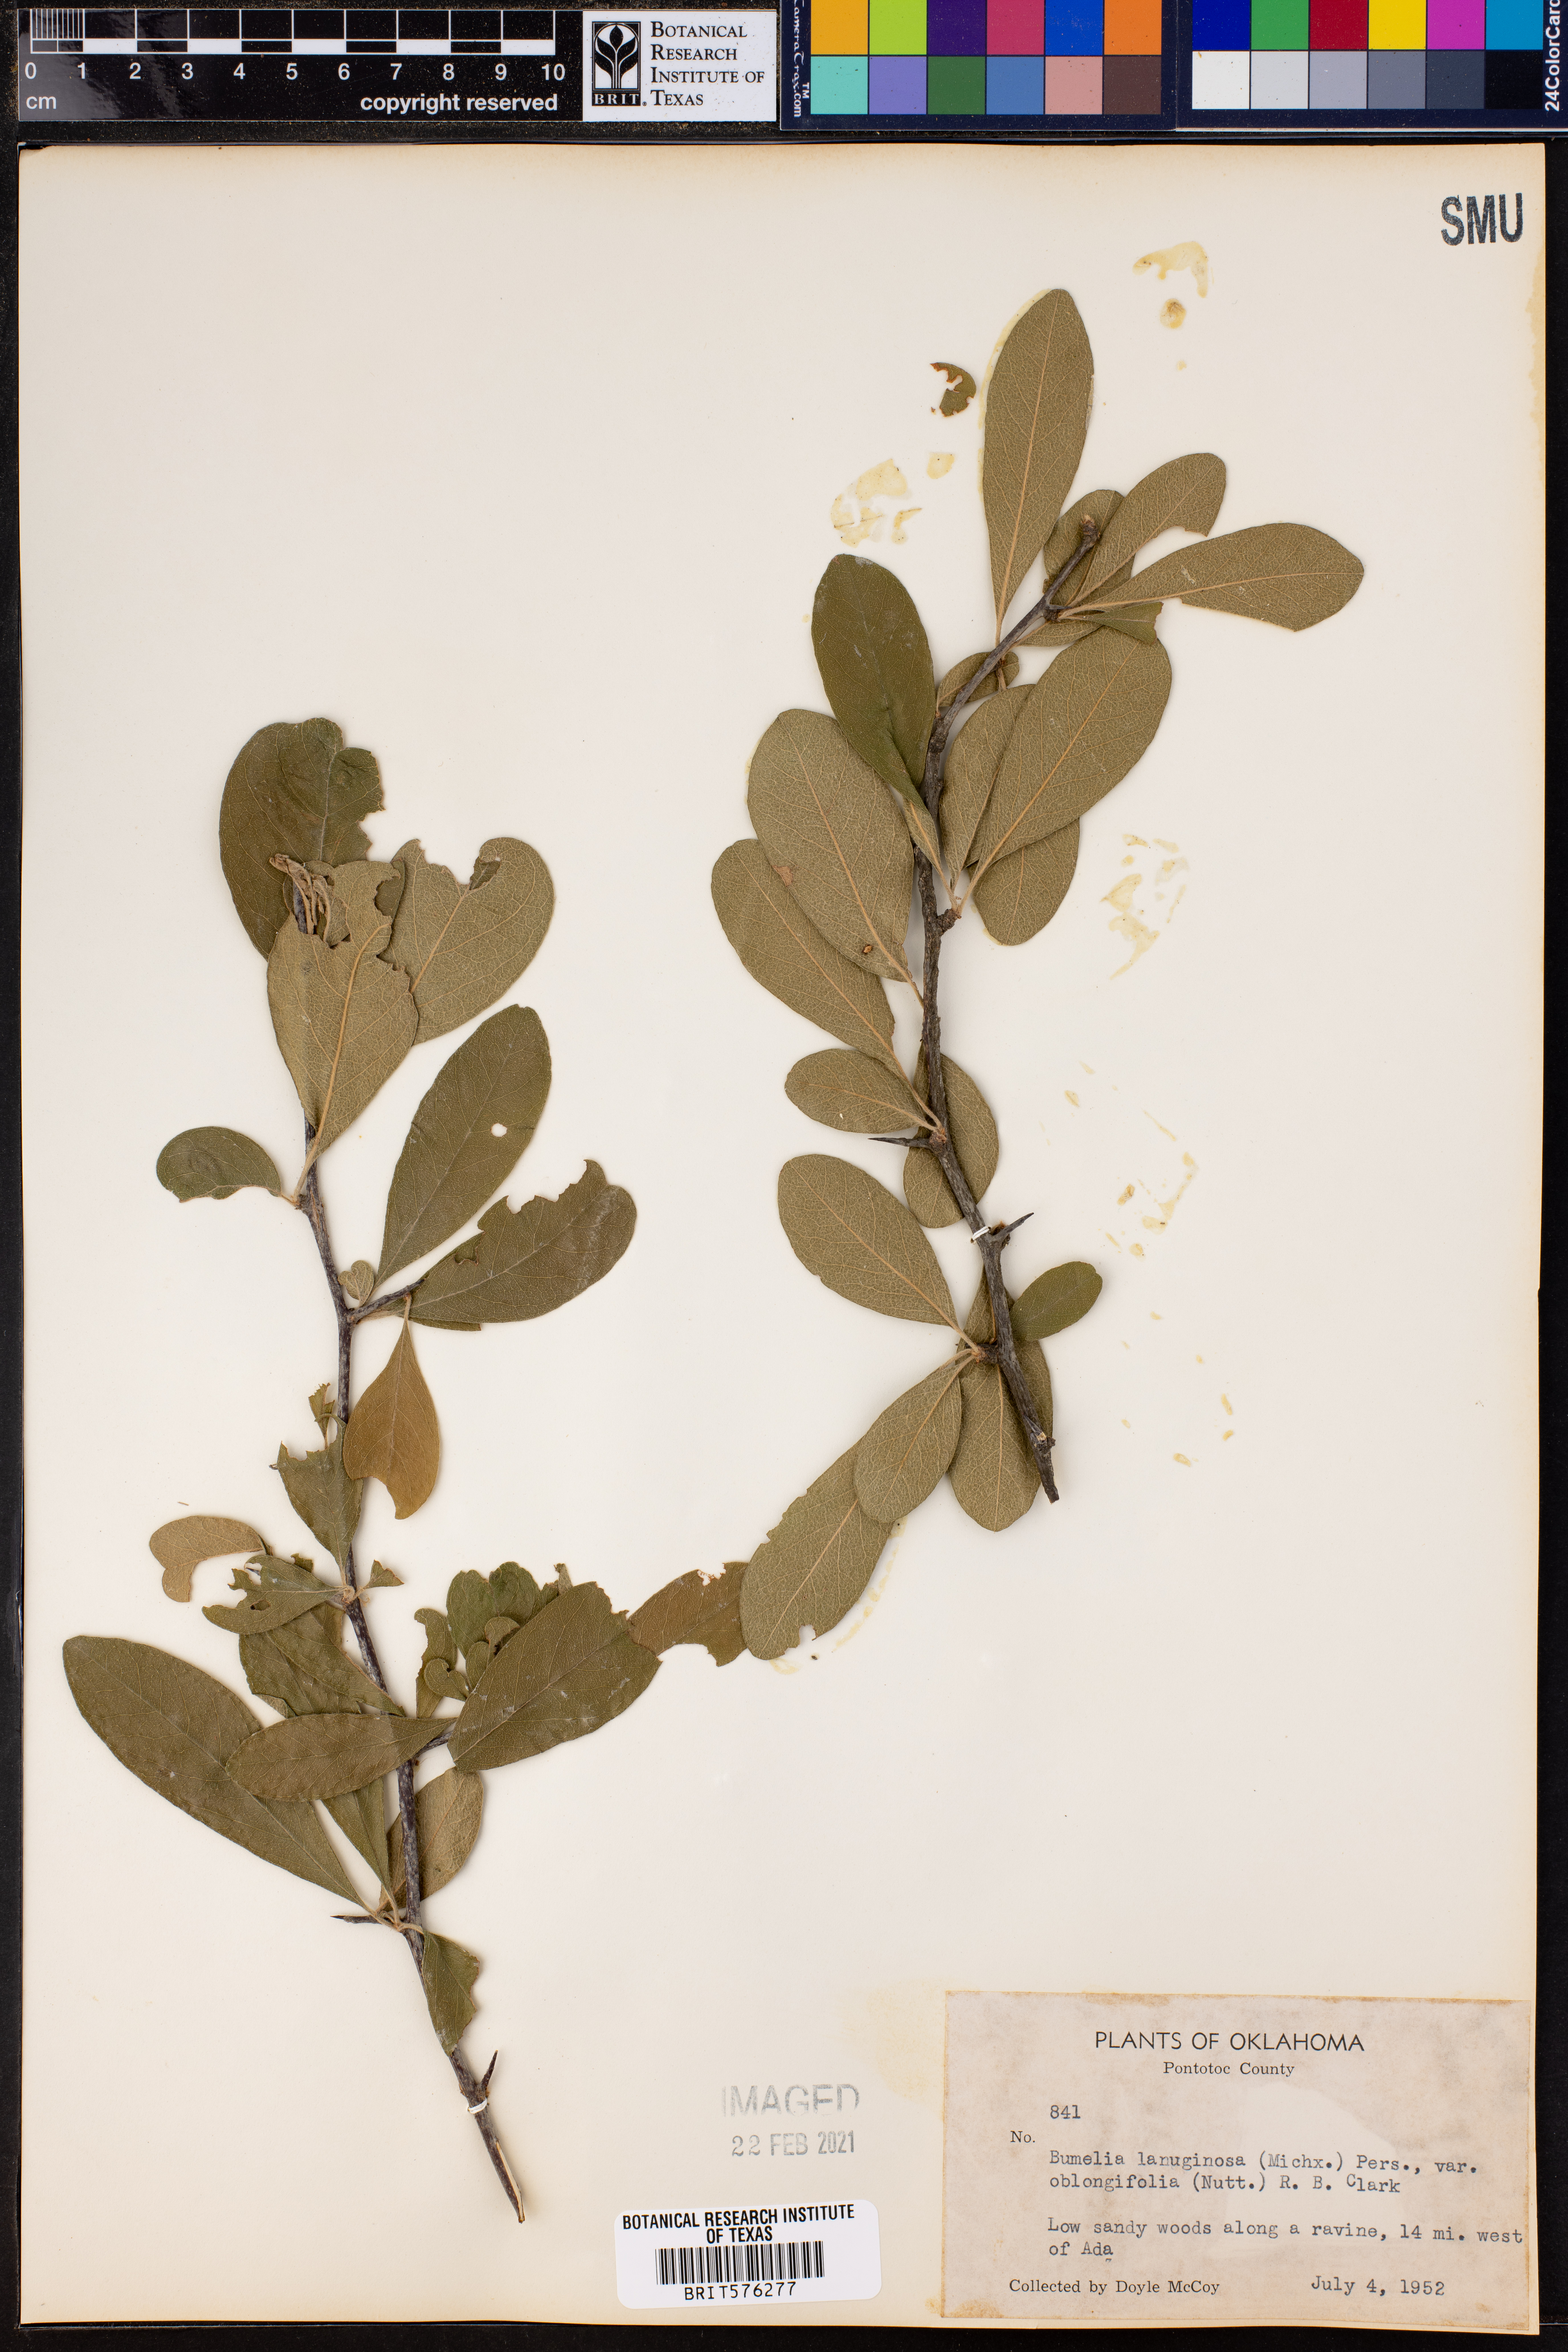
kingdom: Plantae
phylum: Tracheophyta
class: Magnoliopsida
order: Ericales
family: Sapotaceae
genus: Sideroxylon
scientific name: Sideroxylon lanuginosum
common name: Chittamwood
